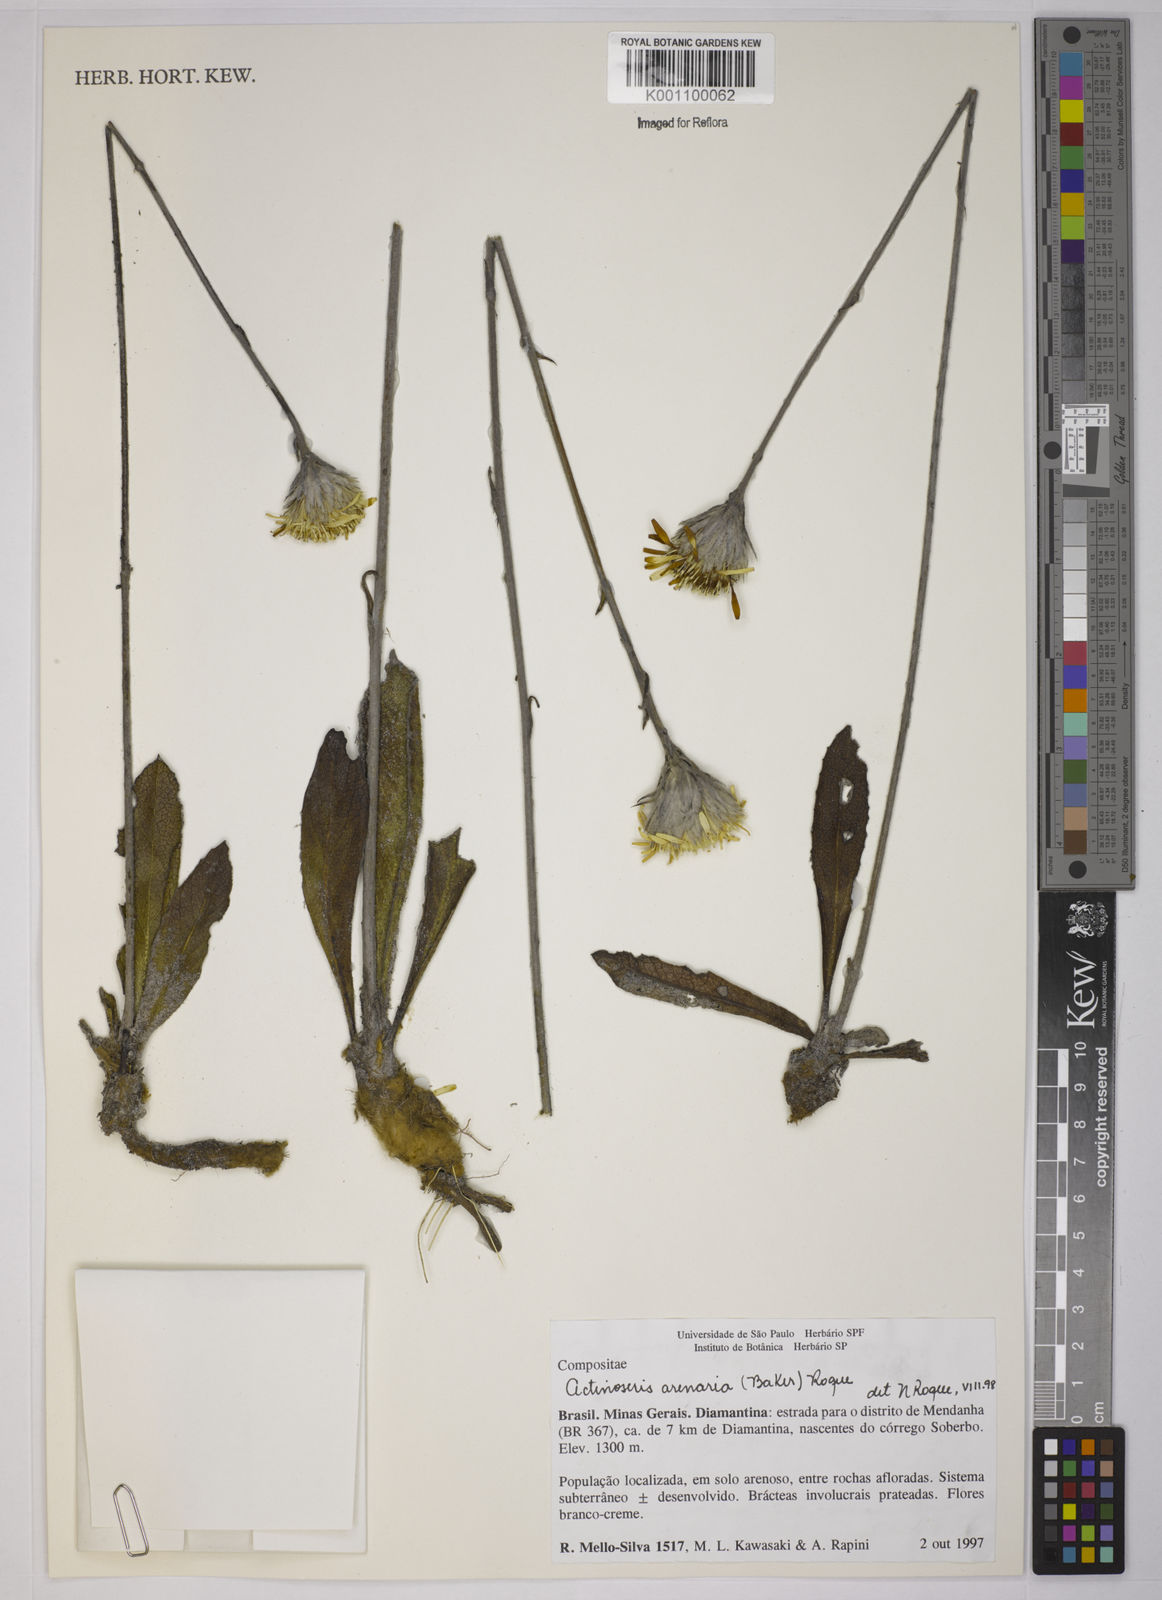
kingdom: Plantae
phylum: Tracheophyta
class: Magnoliopsida
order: Asterales
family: Asteraceae
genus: Richterago
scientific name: Richterago arenaria
